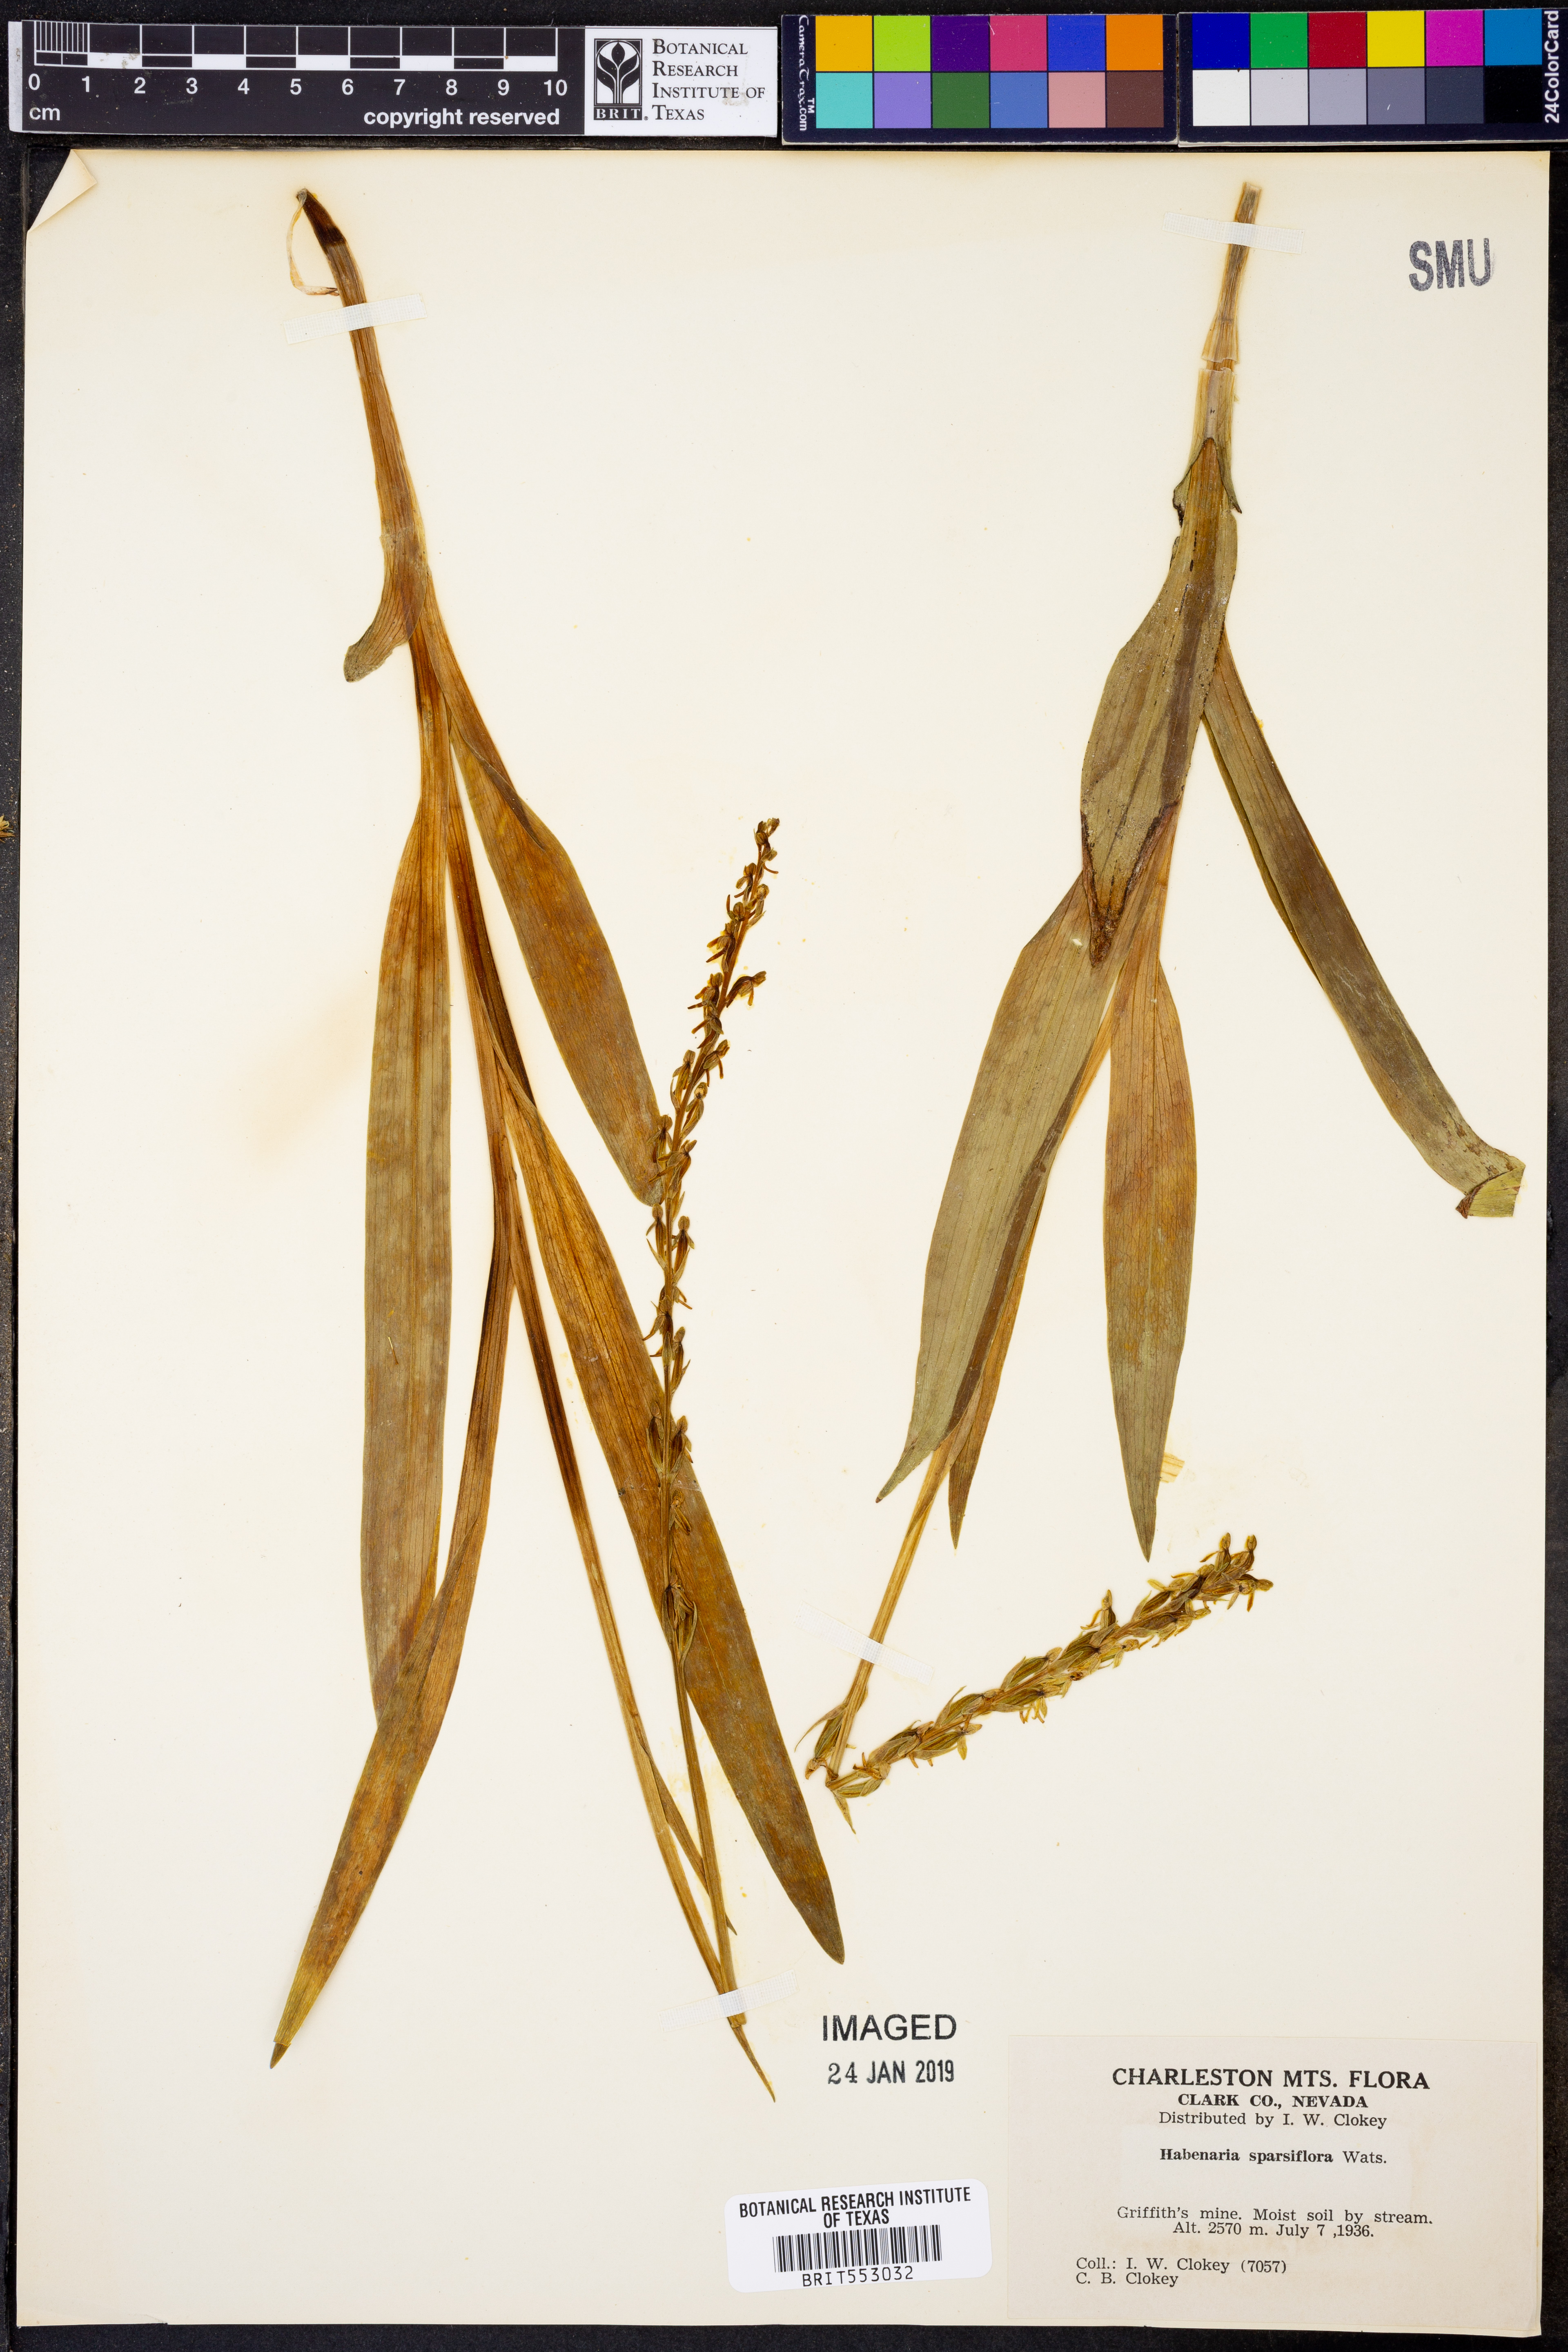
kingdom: Plantae
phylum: Tracheophyta
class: Liliopsida
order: Asparagales
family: Orchidaceae
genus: Platanthera
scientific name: Platanthera sparsiflora
